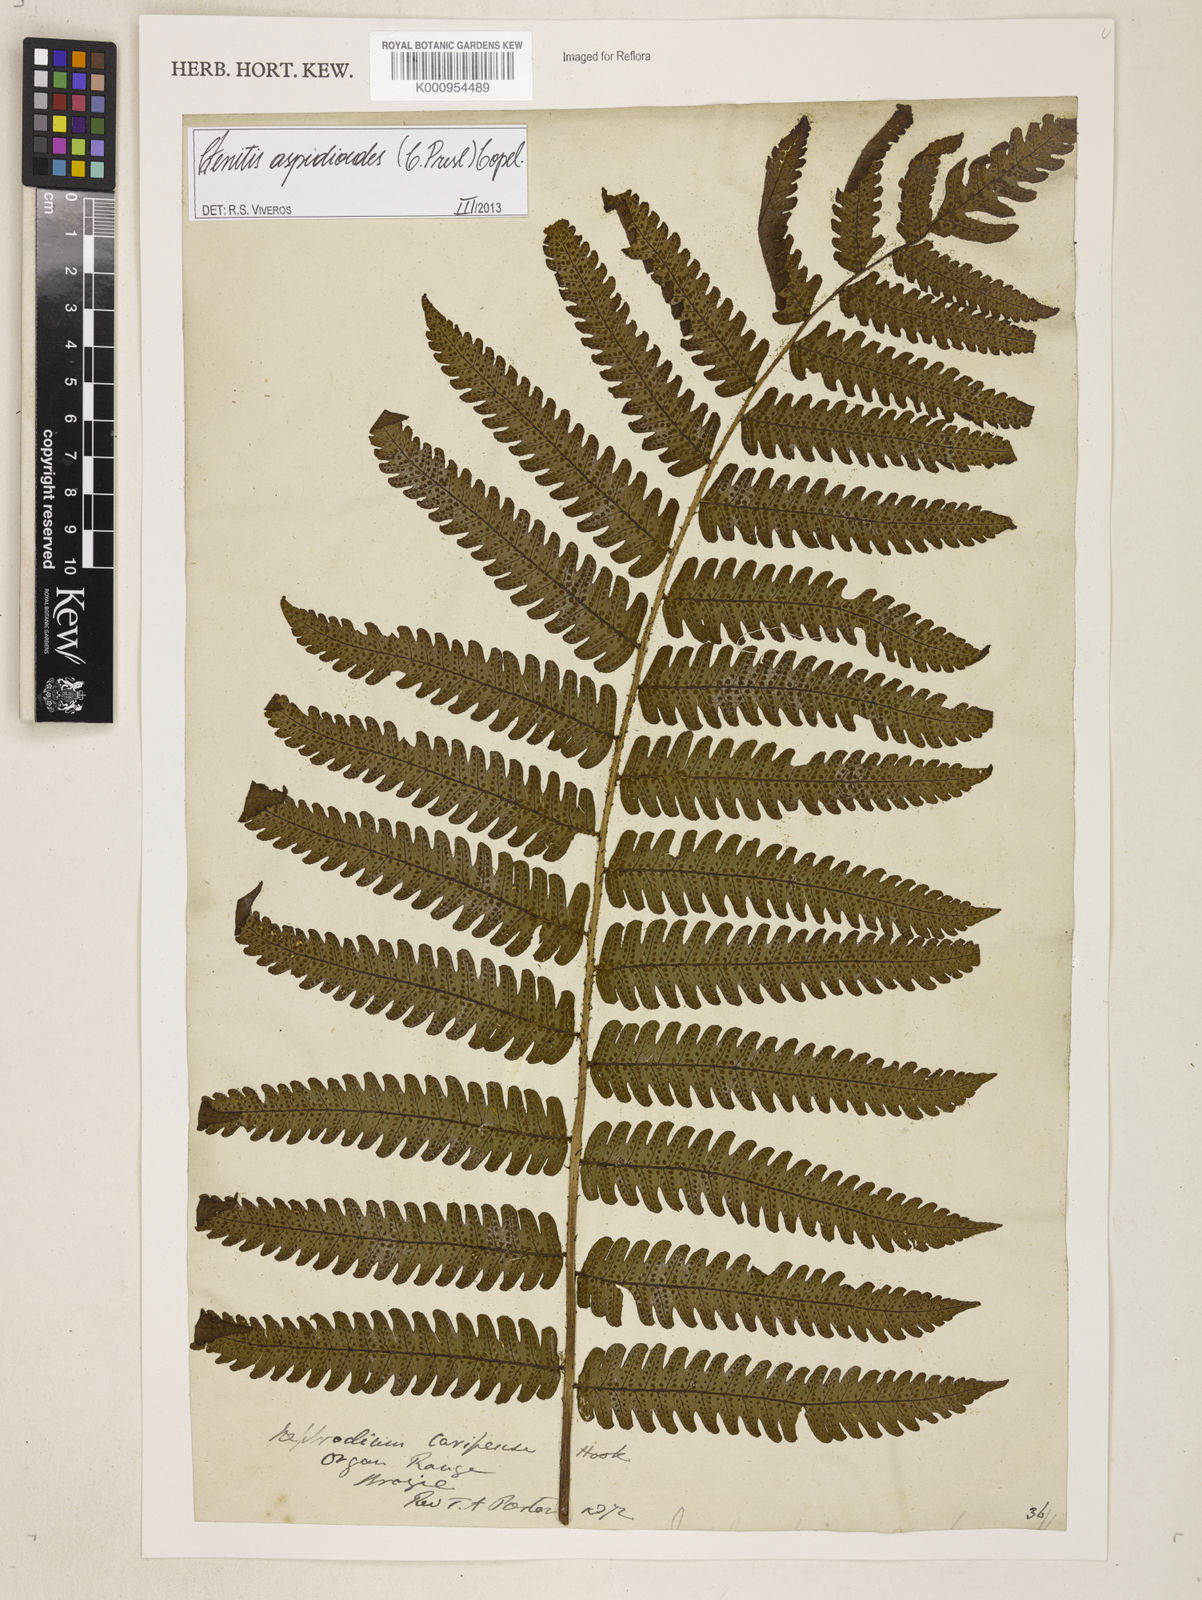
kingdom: Plantae
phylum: Tracheophyta
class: Polypodiopsida
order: Polypodiales
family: Dryopteridaceae
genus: Ctenitis
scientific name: Ctenitis aspidioides
